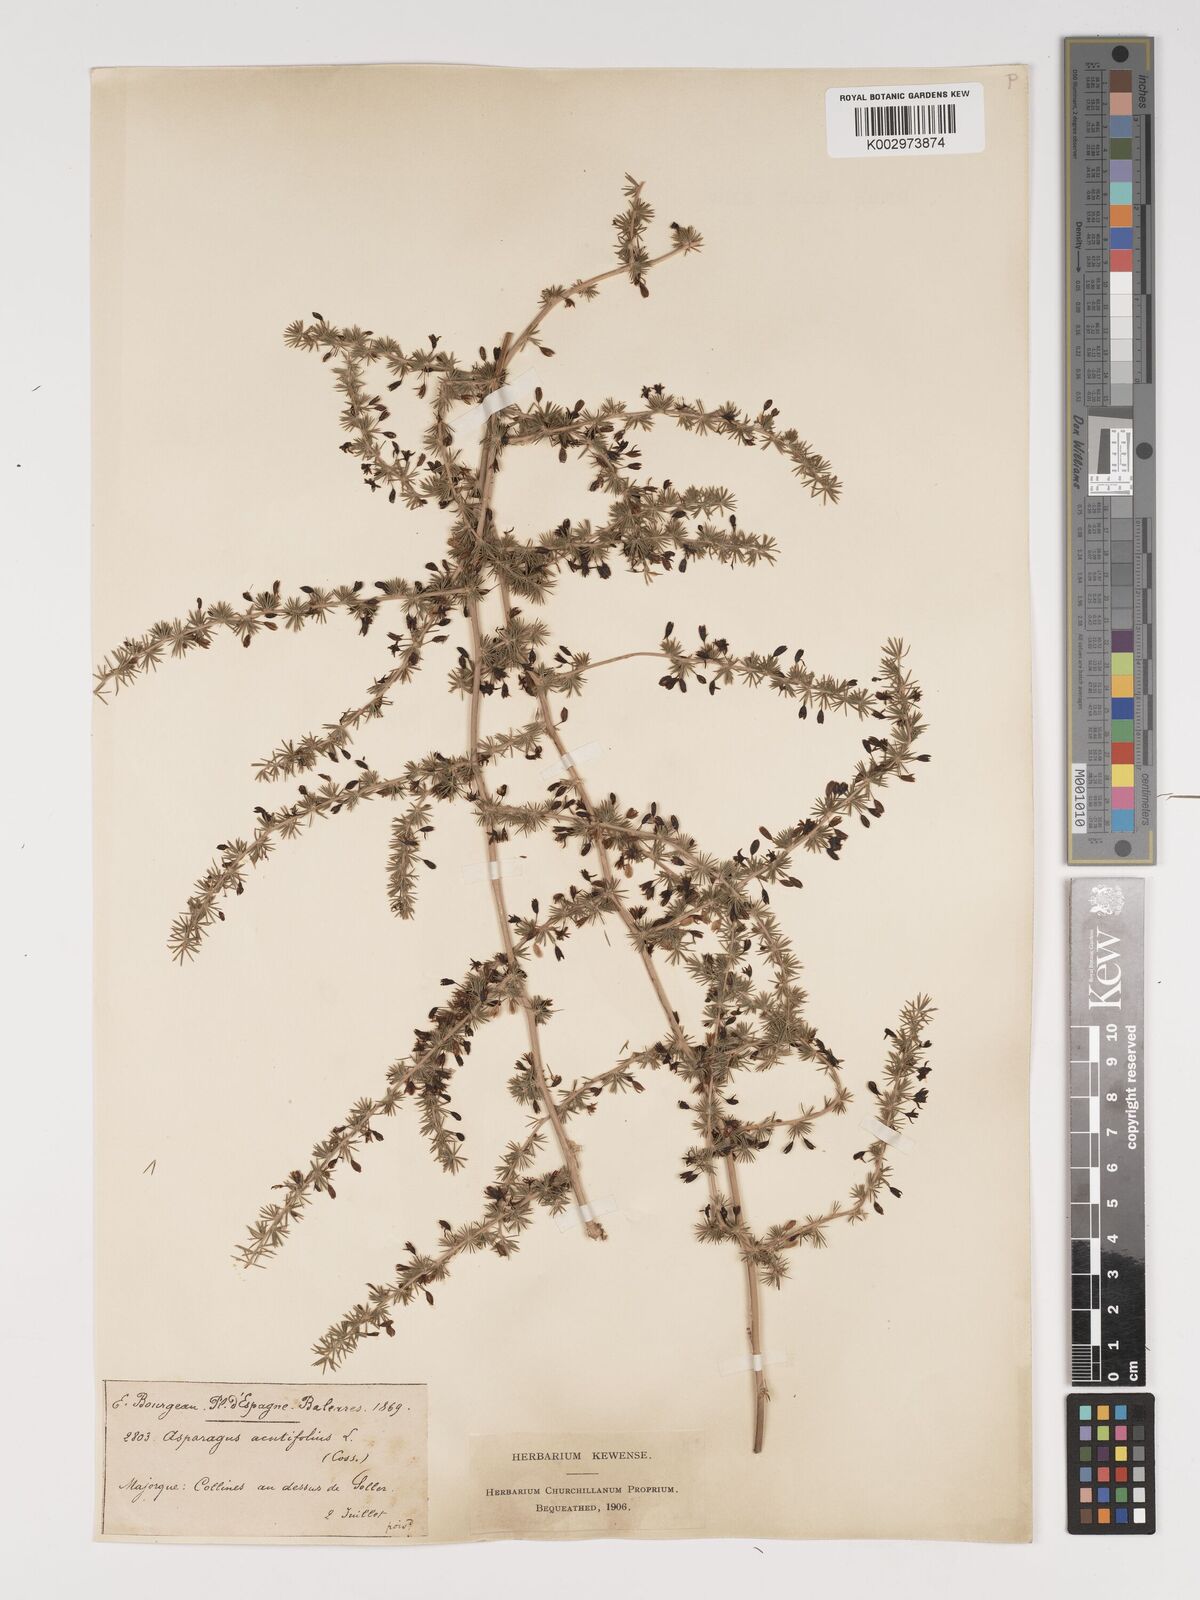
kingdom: Plantae
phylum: Tracheophyta
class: Liliopsida
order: Asparagales
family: Asparagaceae
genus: Asparagus
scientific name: Asparagus acutifolius
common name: Wild asparagus
